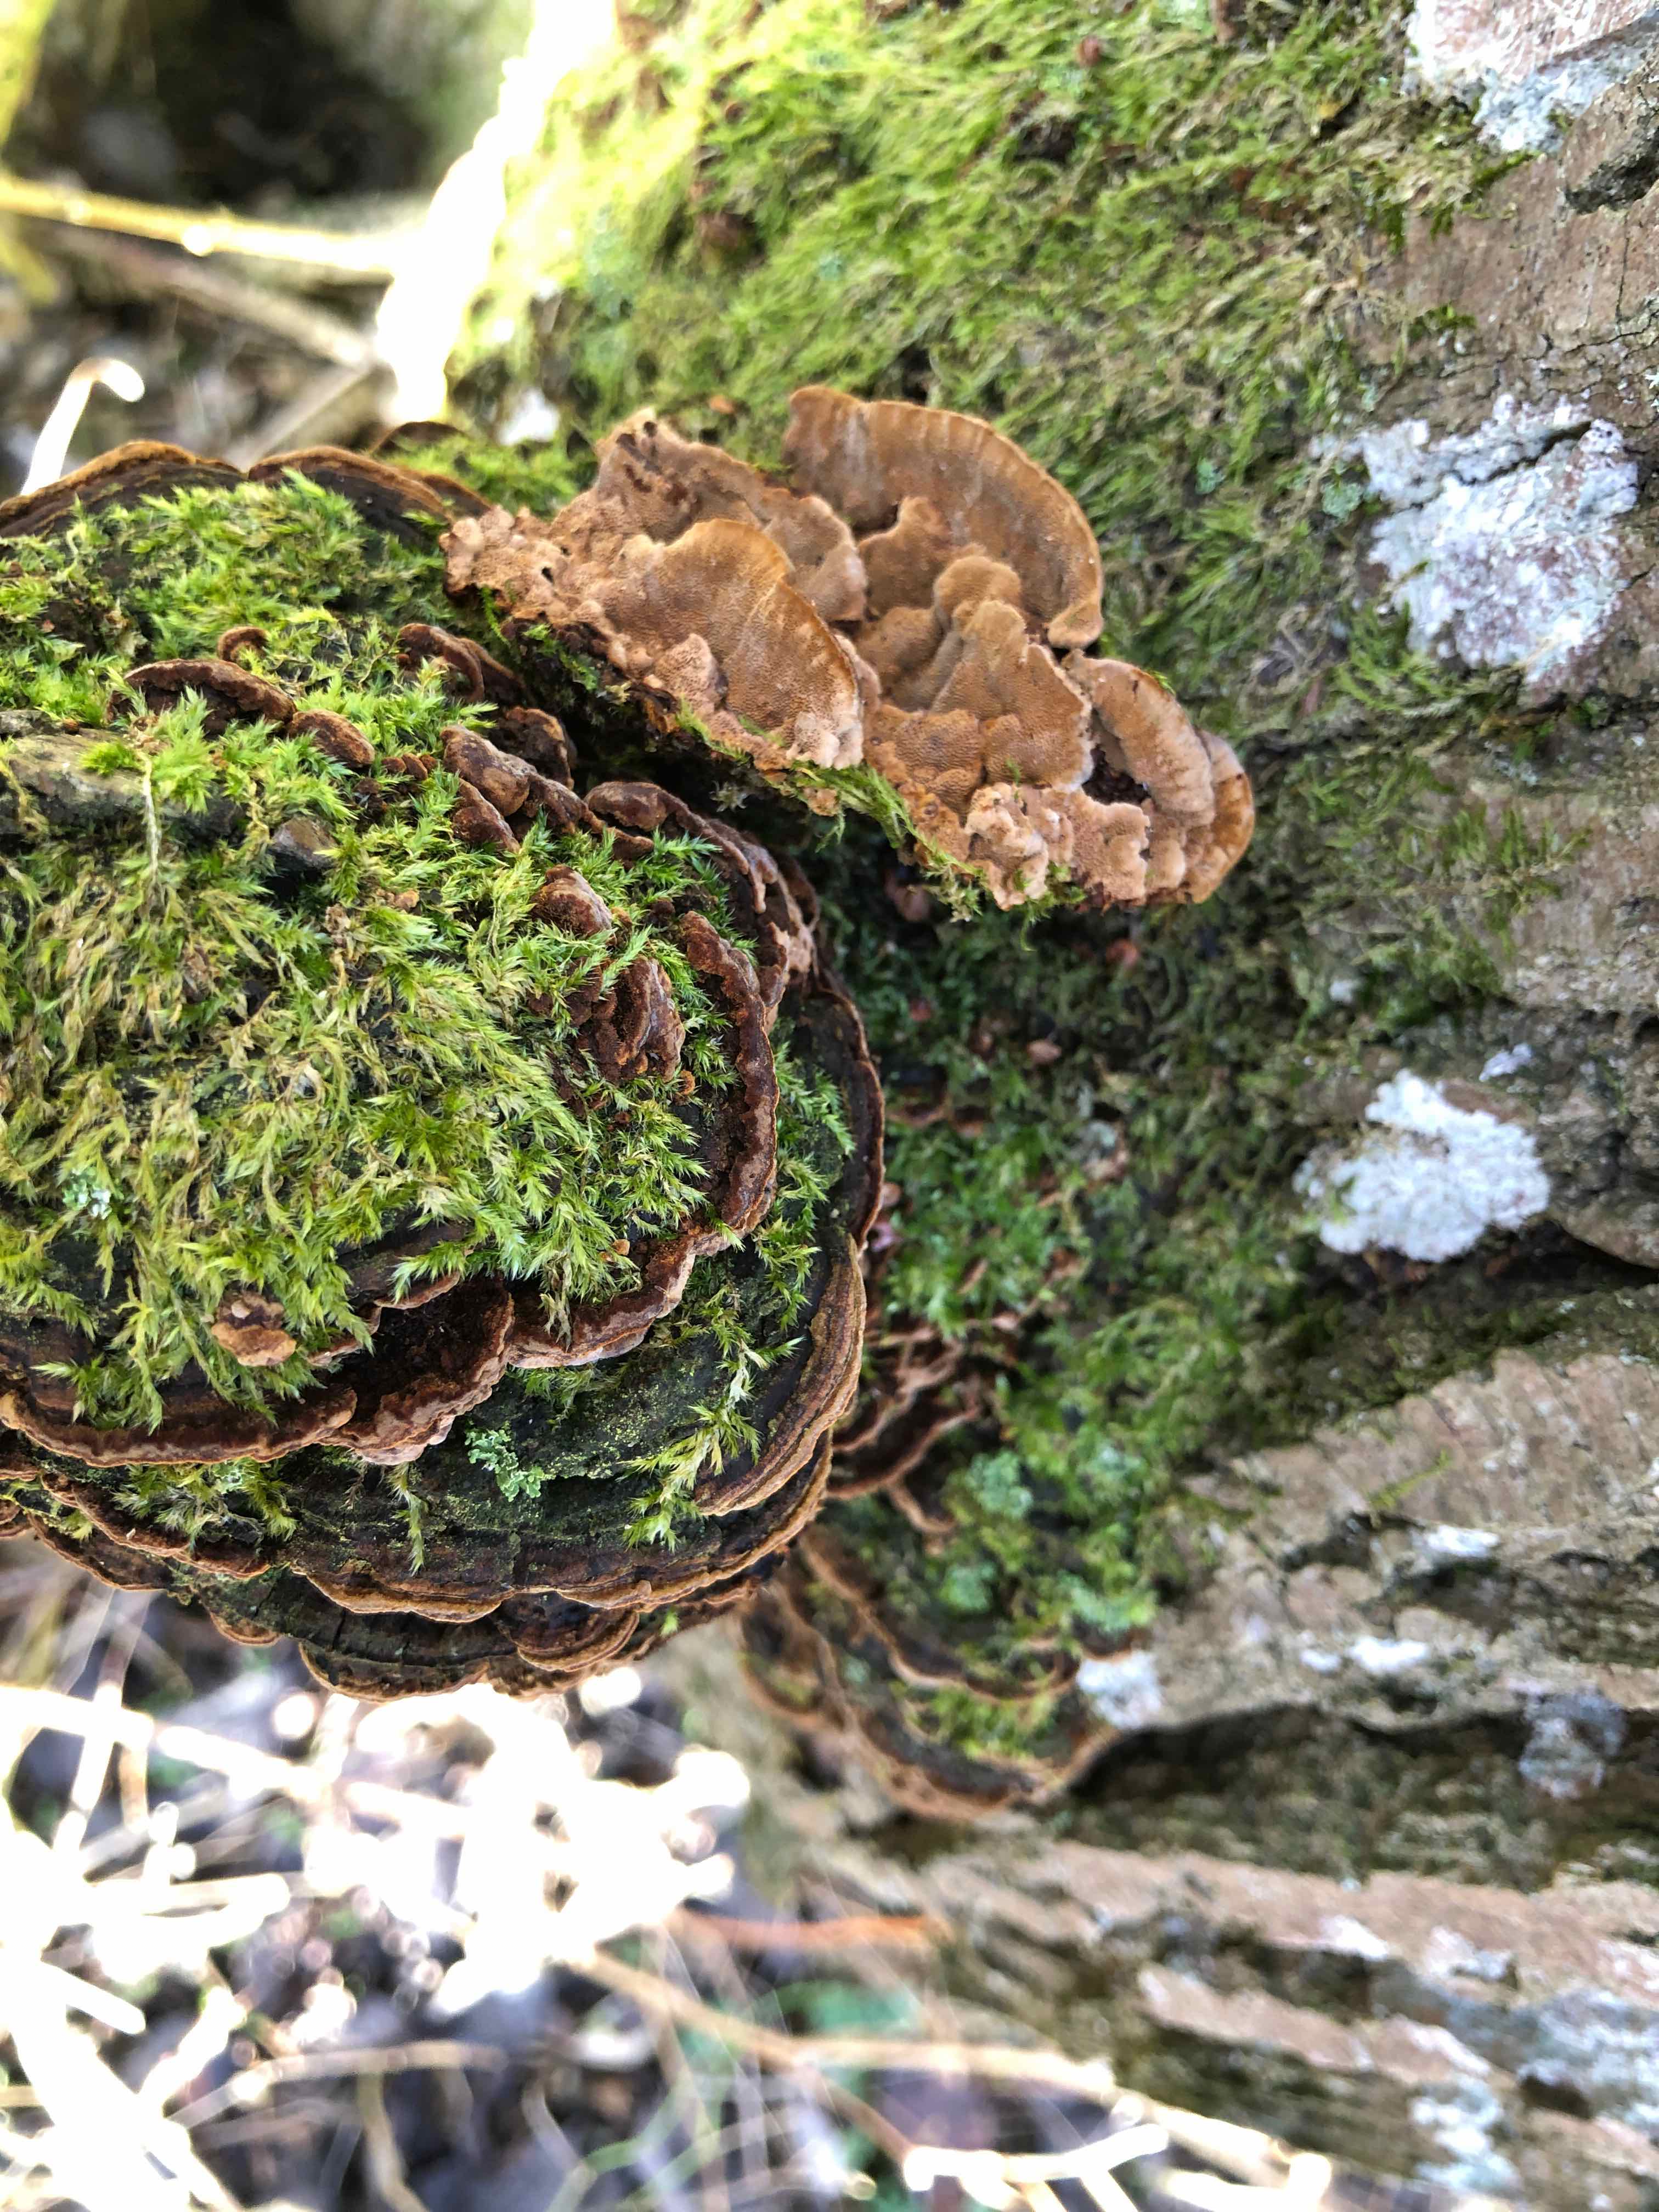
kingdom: Fungi
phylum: Basidiomycota
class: Agaricomycetes
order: Hymenochaetales
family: Hymenochaetaceae
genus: Phellinopsis
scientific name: Phellinopsis conchata
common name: pile-ildporesvamp
